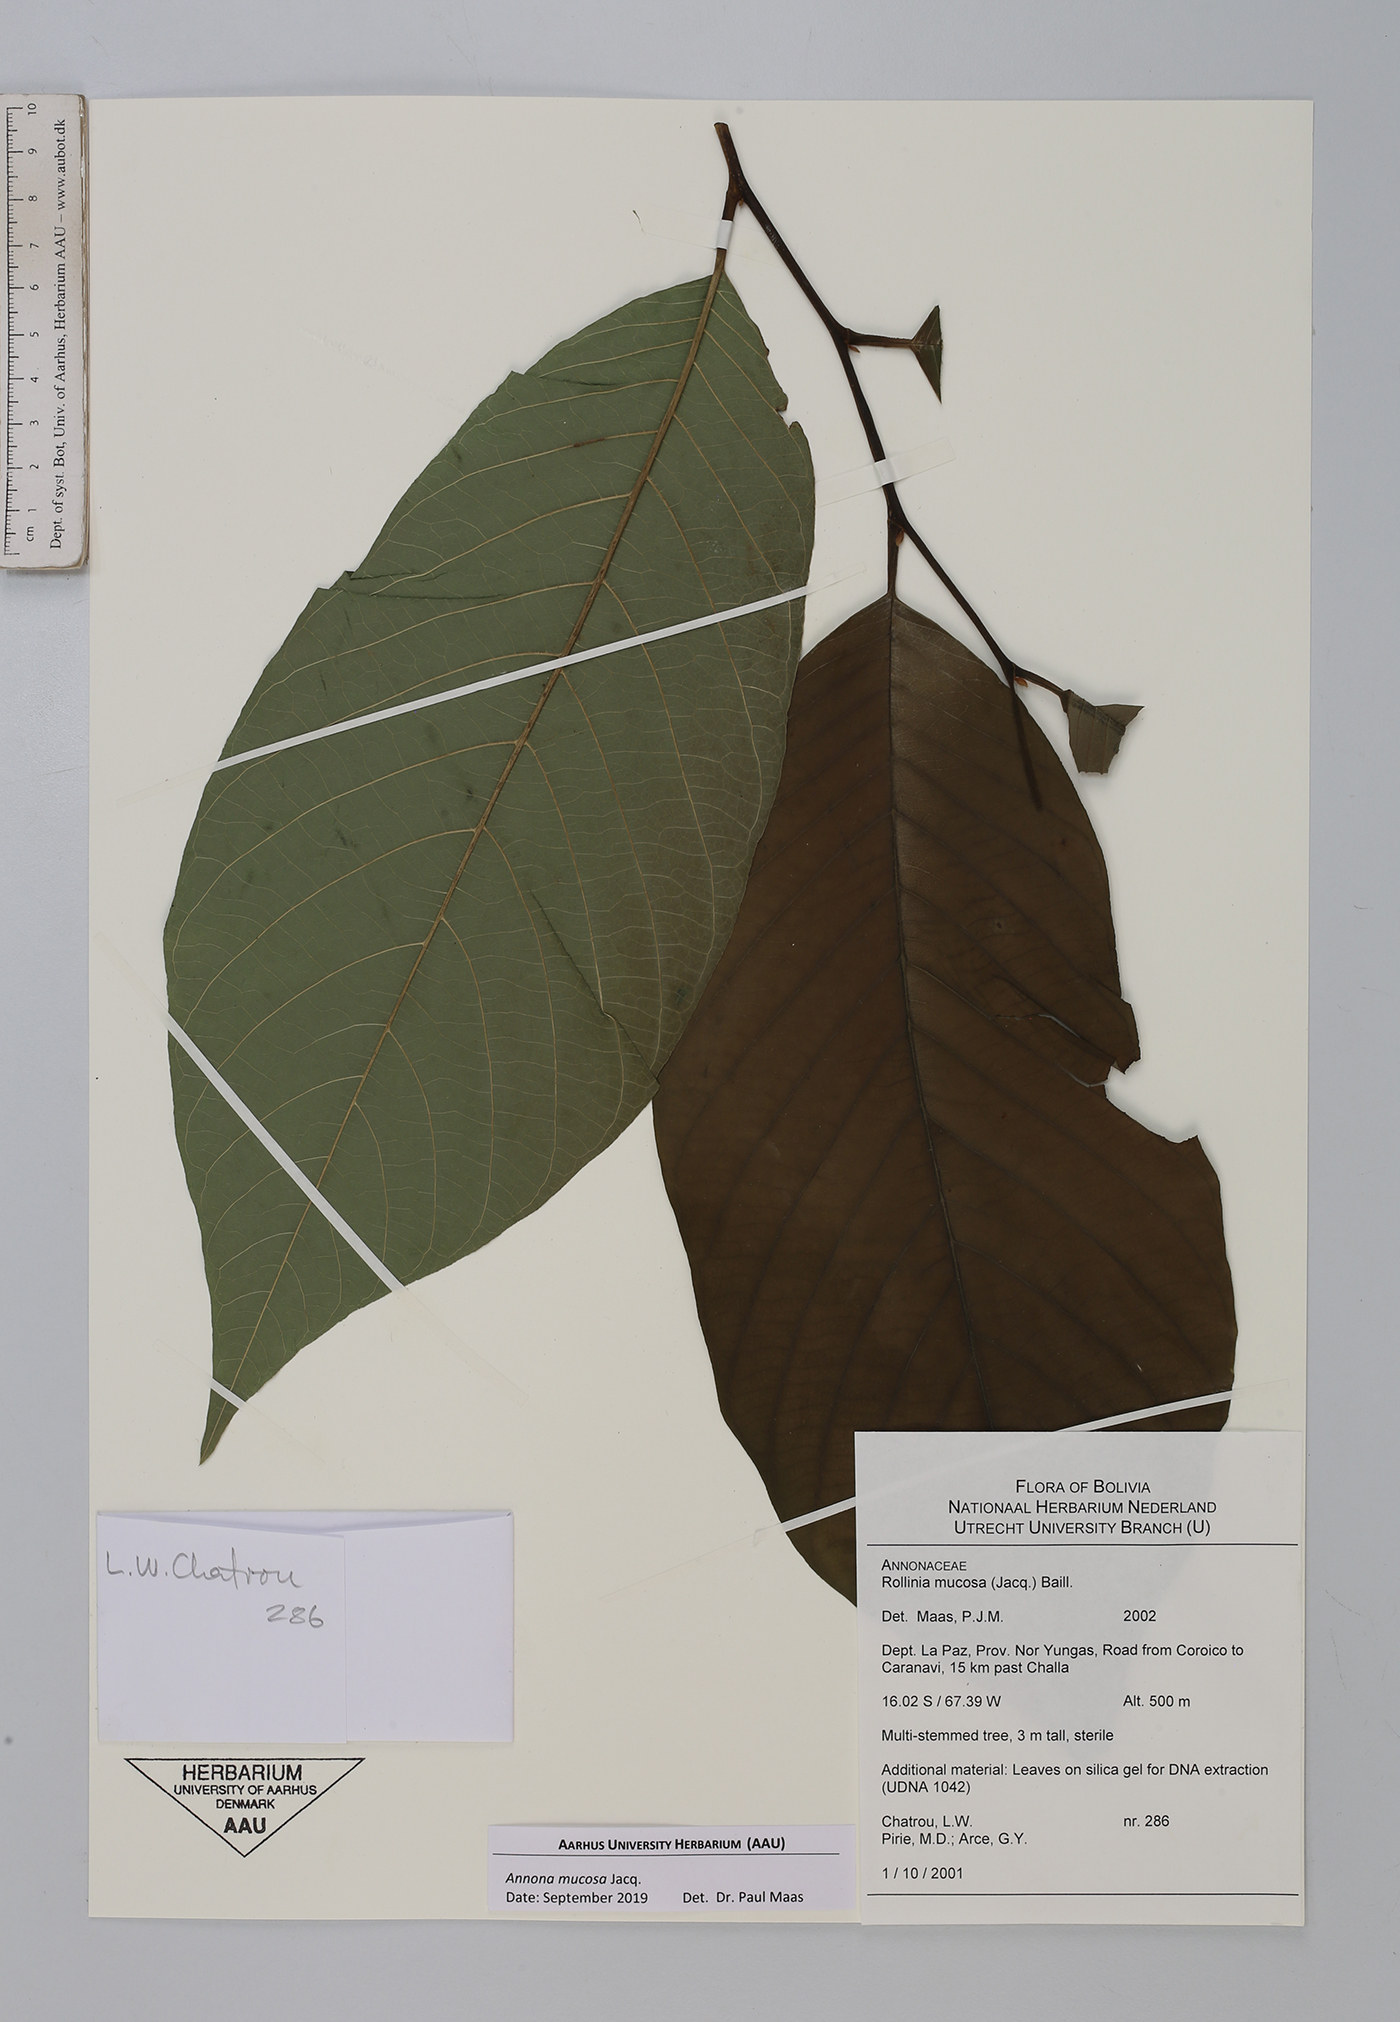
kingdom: Plantae
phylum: Tracheophyta
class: Magnoliopsida
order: Magnoliales
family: Annonaceae
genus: Annona
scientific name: Annona mucosa
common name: Sugar apple
